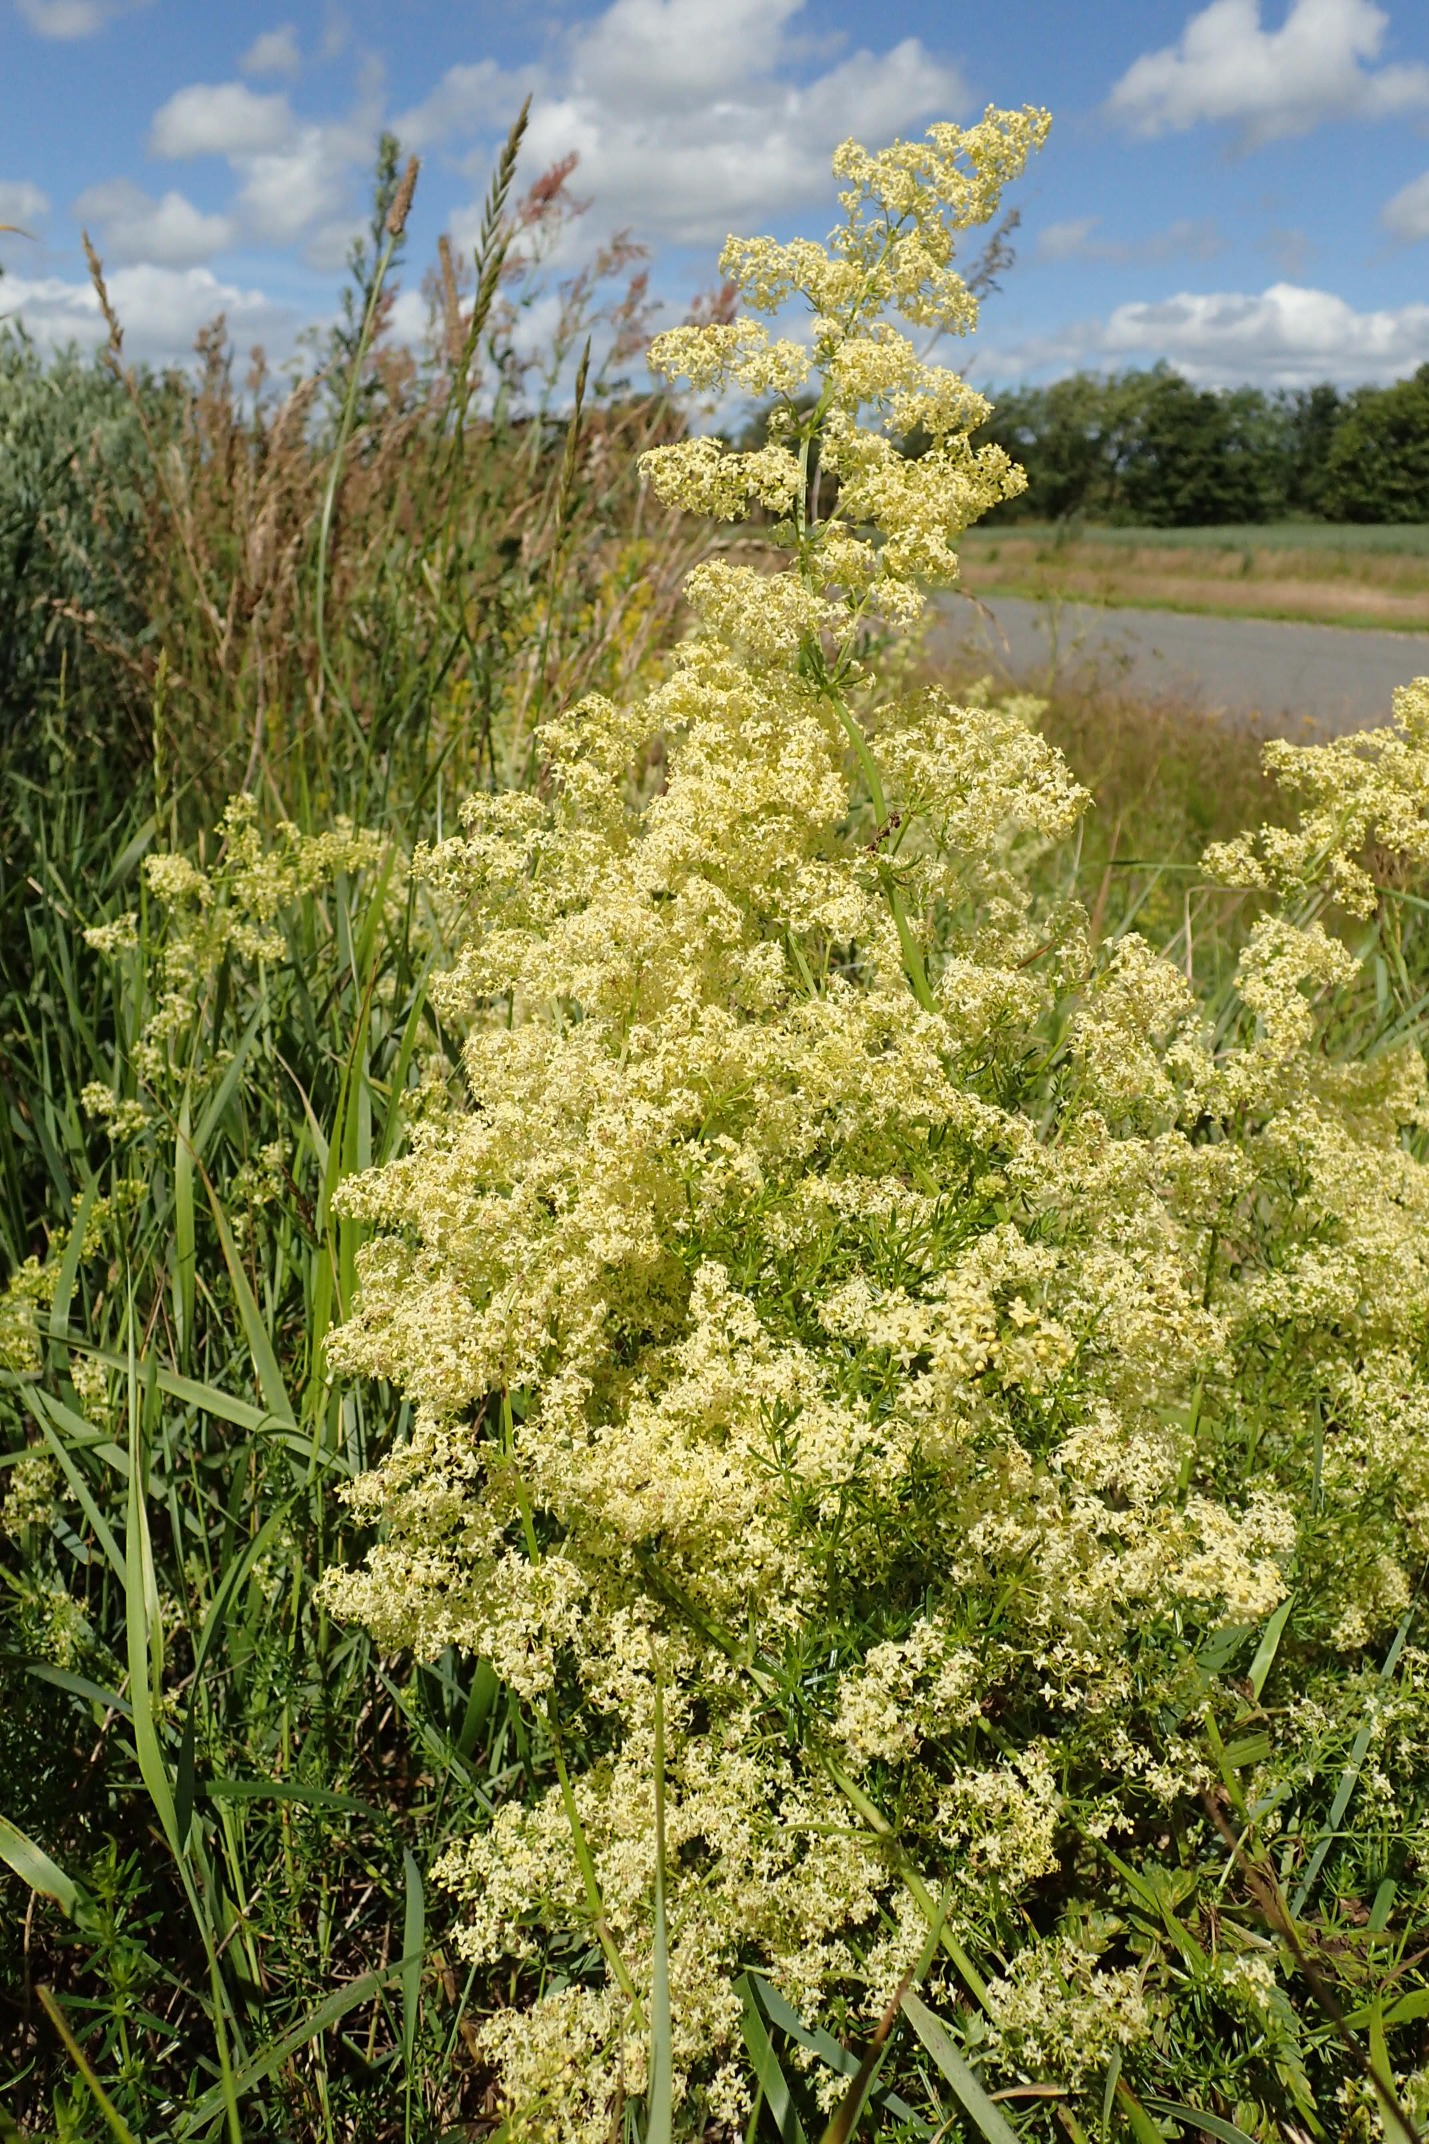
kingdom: Plantae
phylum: Tracheophyta
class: Magnoliopsida
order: Gentianales
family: Rubiaceae
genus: Galium
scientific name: Galium
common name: Hvidgul snerre
